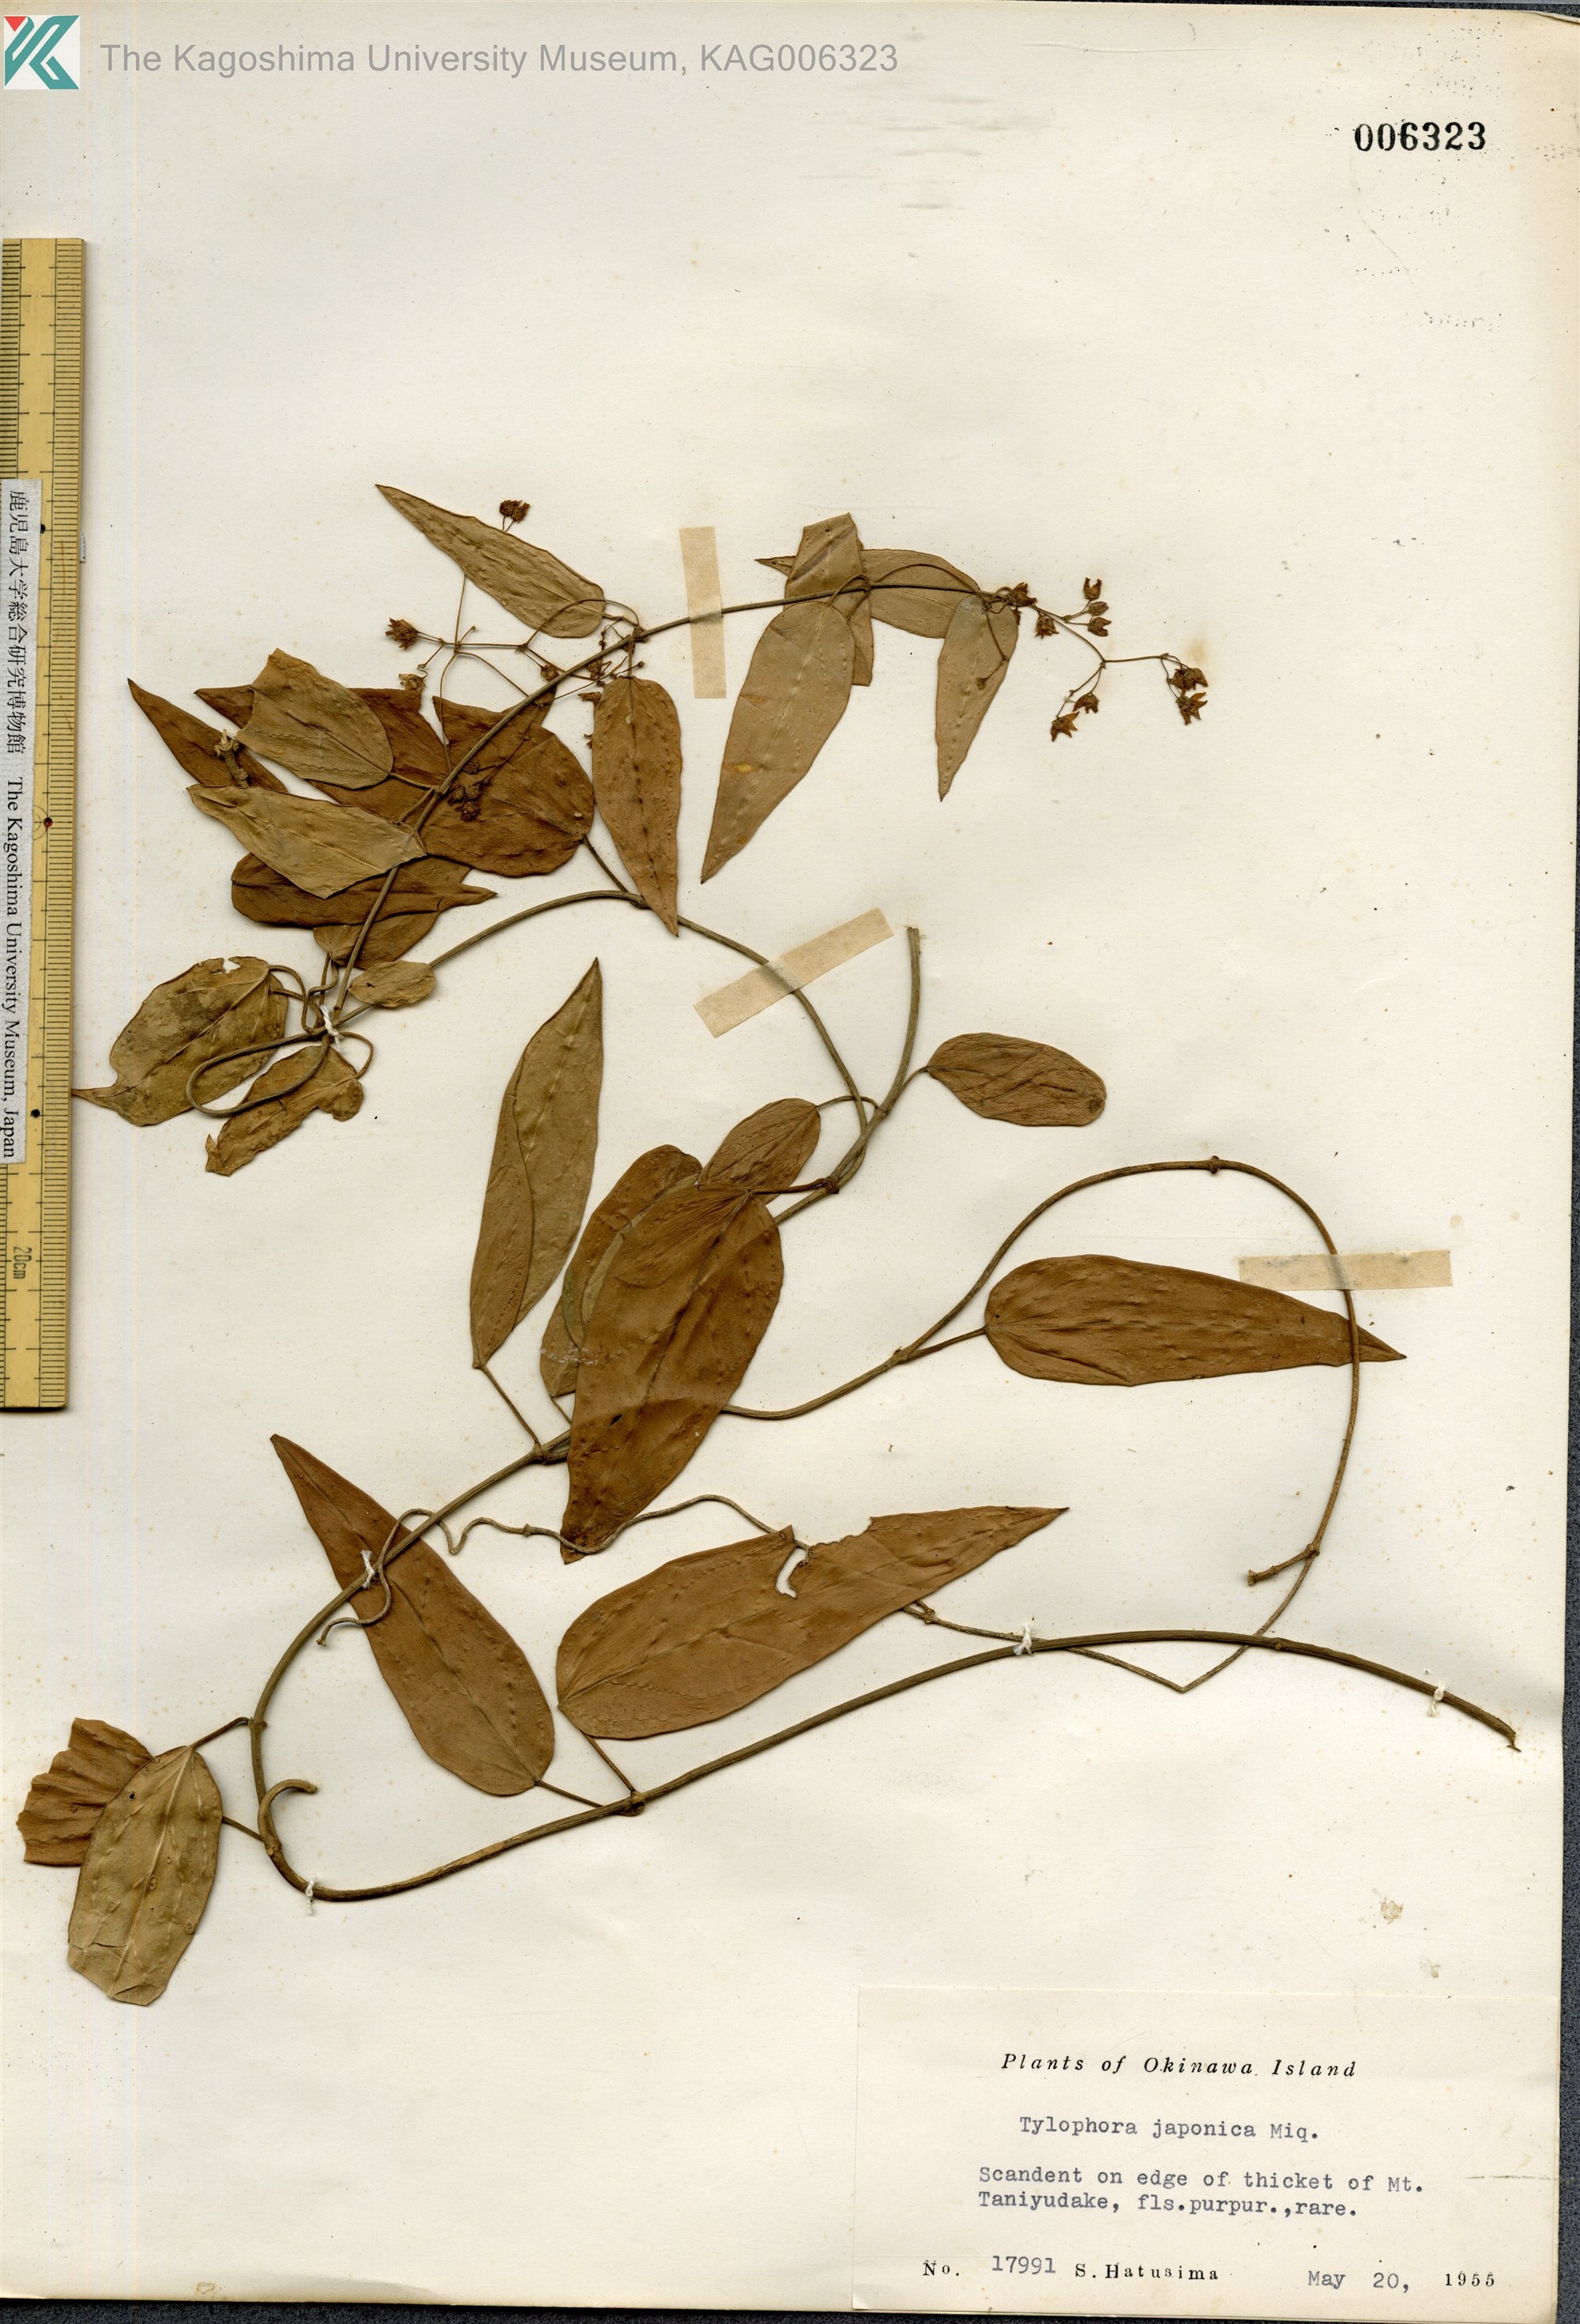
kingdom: Plantae
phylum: Tracheophyta
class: Magnoliopsida
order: Gentianales
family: Apocynaceae
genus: Vincetoxicum
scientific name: Vincetoxicum sieboldii
